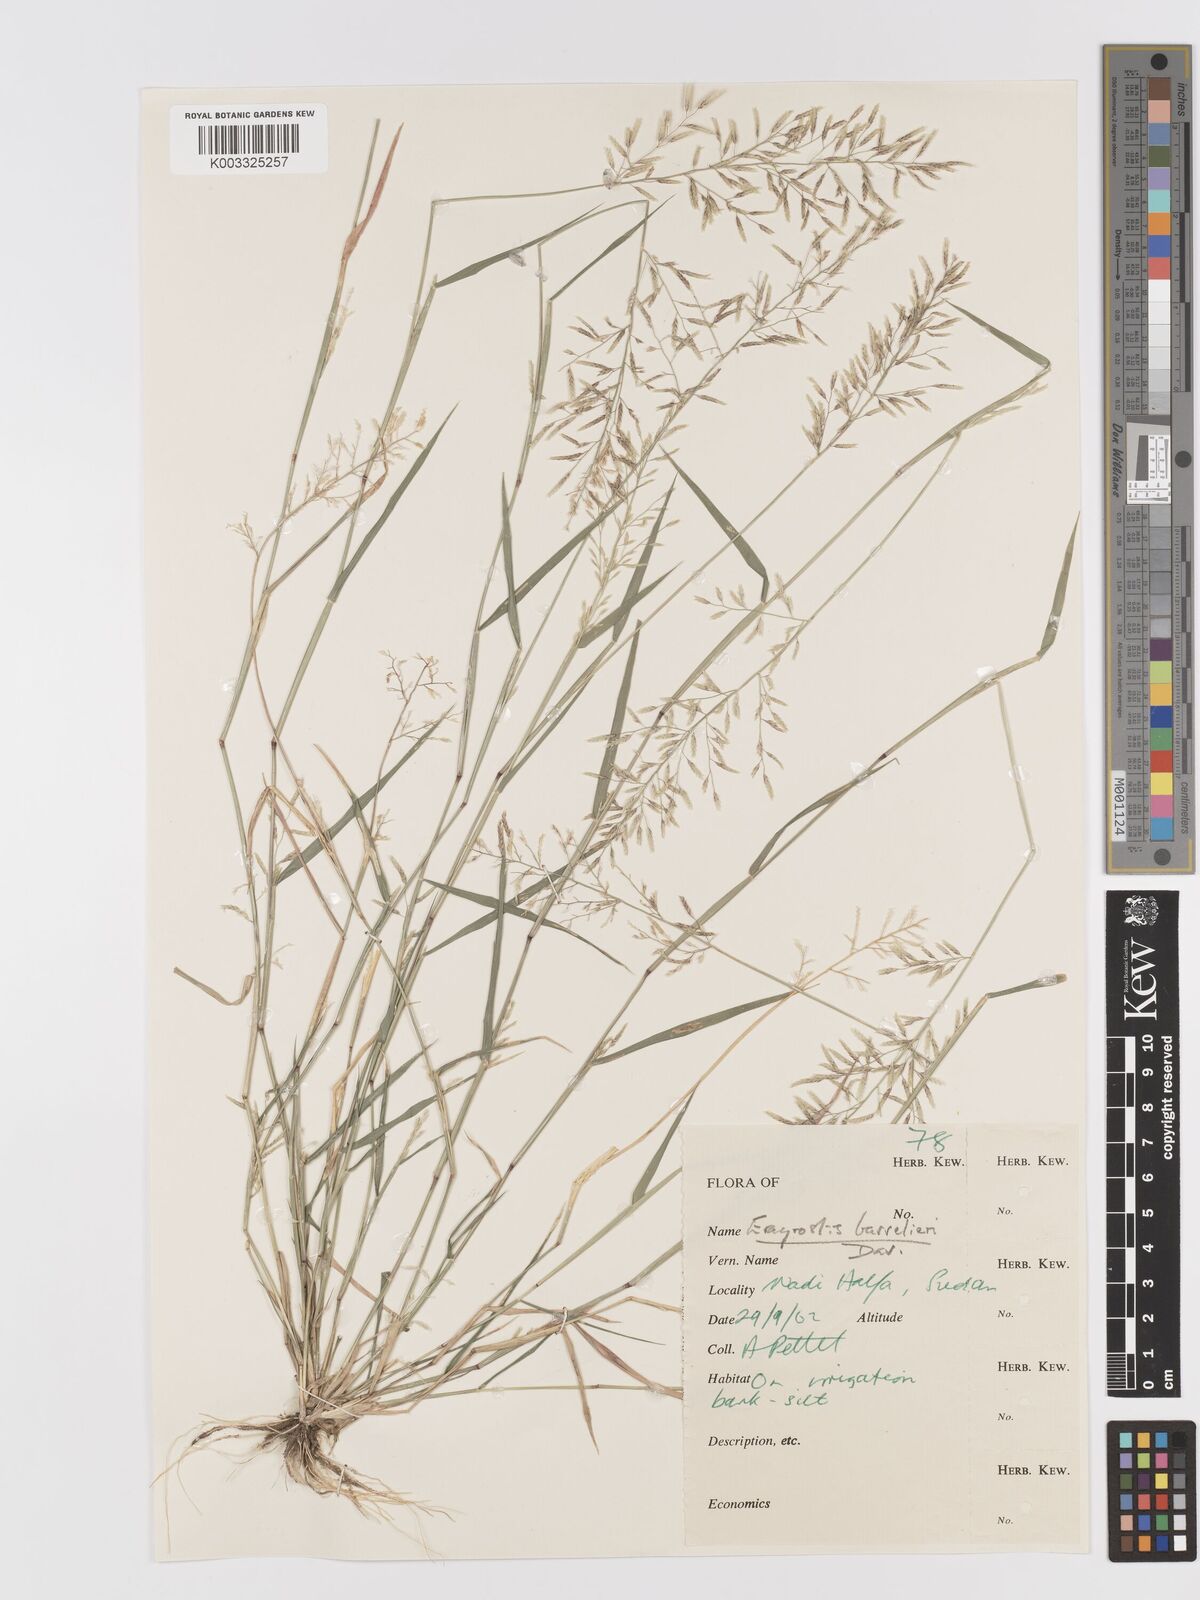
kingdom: Plantae
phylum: Tracheophyta
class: Liliopsida
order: Poales
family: Poaceae
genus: Eragrostis
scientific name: Eragrostis barrelieri
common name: Mediterranean lovegrass
